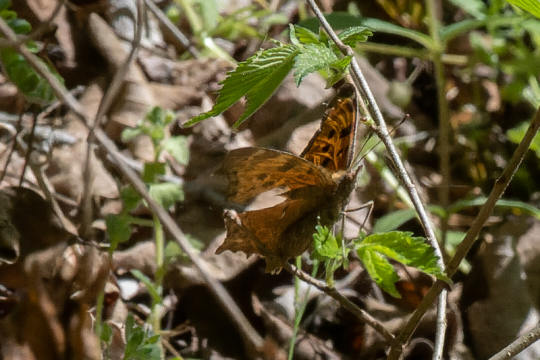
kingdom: Animalia
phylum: Arthropoda
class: Insecta
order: Lepidoptera
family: Nymphalidae
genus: Polygonia
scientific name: Polygonia comma
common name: Eastern Comma
